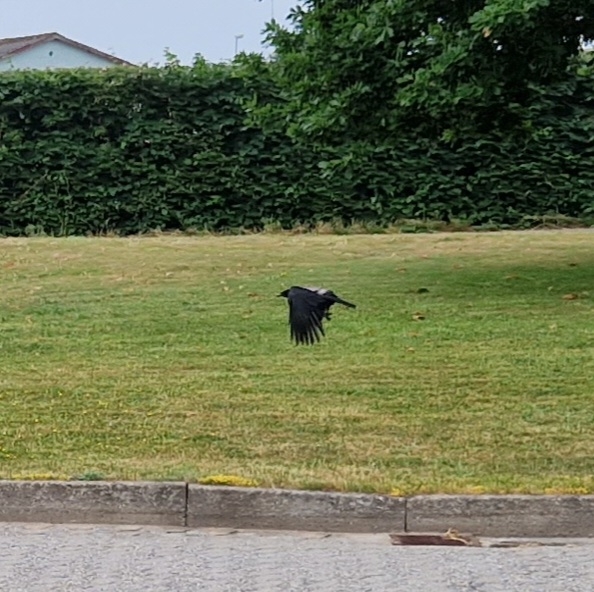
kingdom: Animalia
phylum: Chordata
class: Aves
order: Passeriformes
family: Corvidae
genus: Corvus
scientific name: Corvus cornix
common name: Gråkrage
